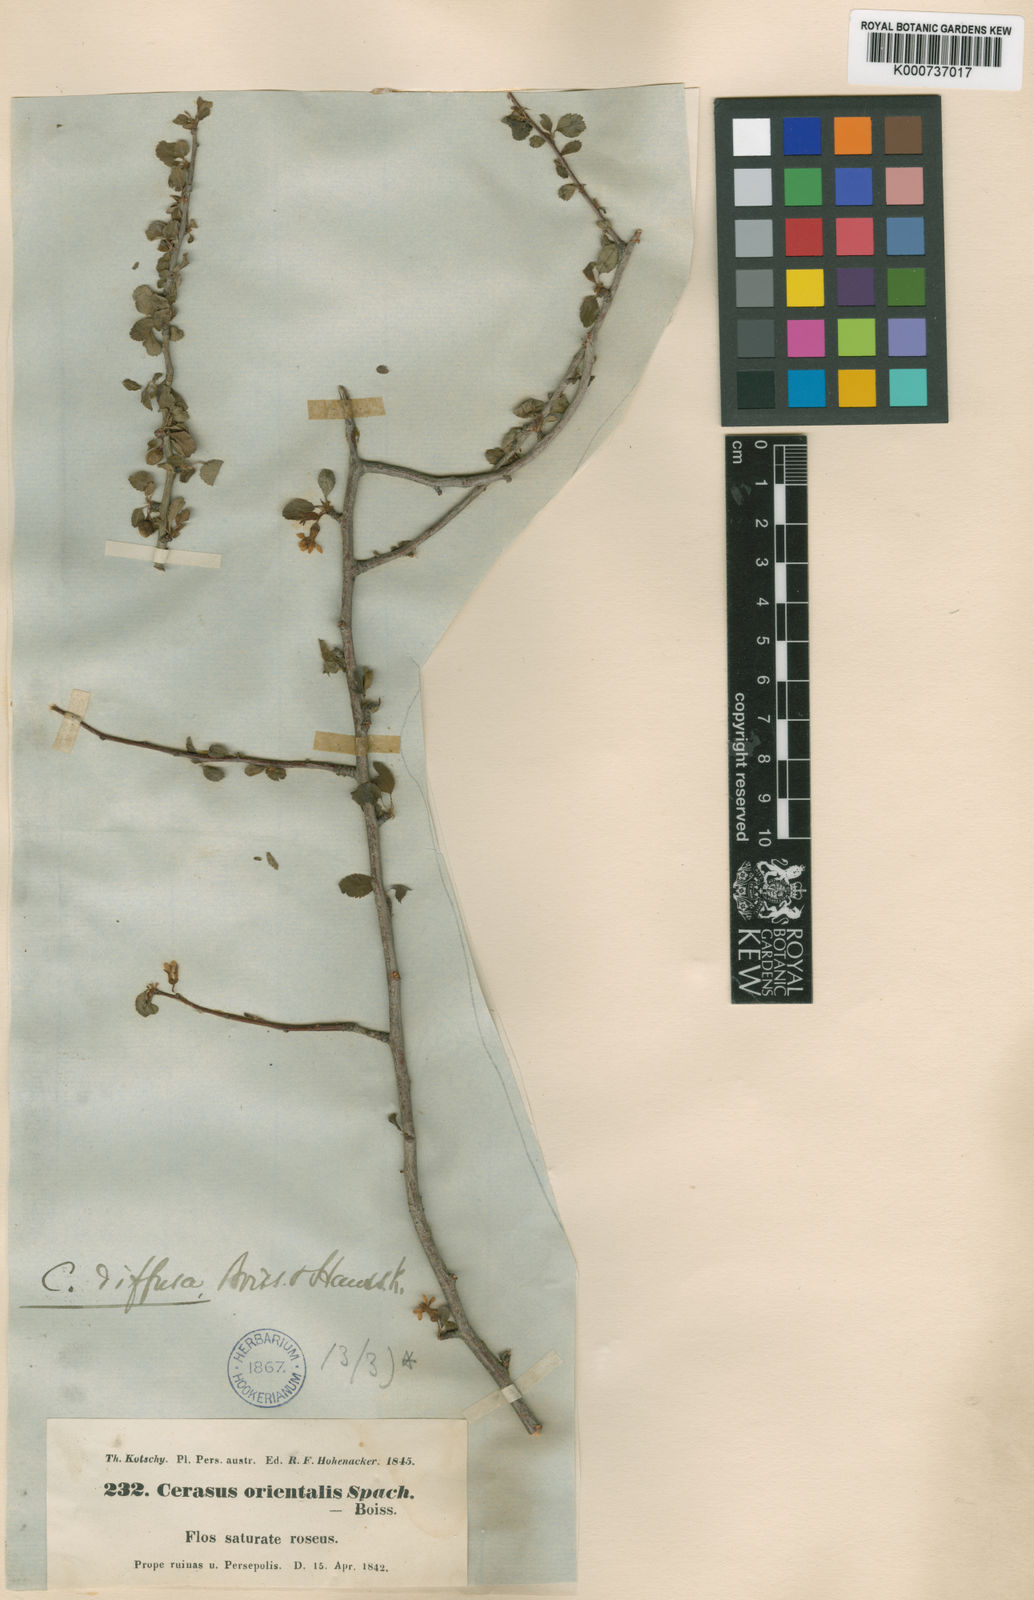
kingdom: Plantae
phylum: Tracheophyta
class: Magnoliopsida
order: Rosales
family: Rosaceae
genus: Prunus
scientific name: Prunus Cerasus myrtifolia
